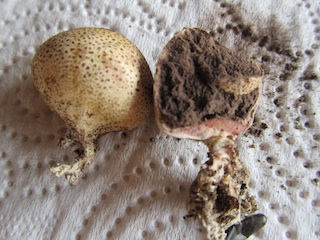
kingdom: Fungi
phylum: Basidiomycota
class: Agaricomycetes
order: Boletales
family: Sclerodermataceae
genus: Scleroderma
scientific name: Scleroderma areolatum
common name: plettet bruskbold
